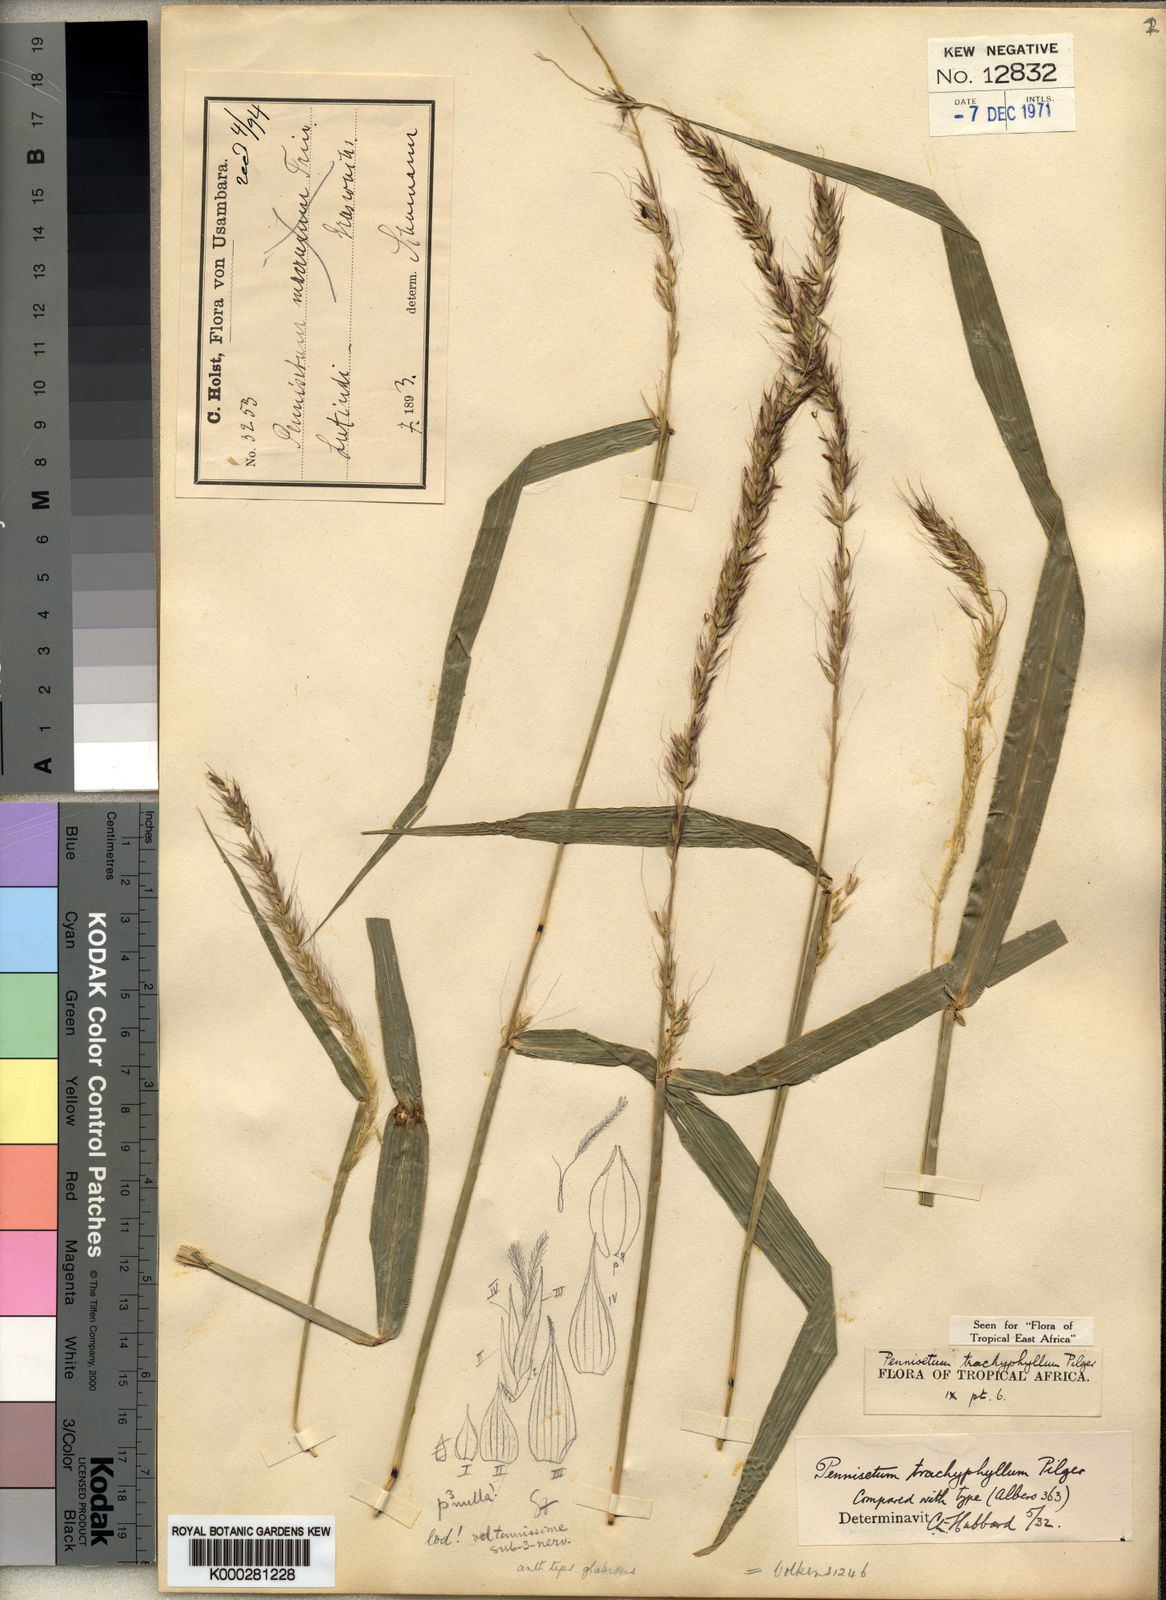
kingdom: Plantae
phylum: Tracheophyta
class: Liliopsida
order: Poales
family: Poaceae
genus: Cenchrus
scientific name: Cenchrus trachyphyllus
